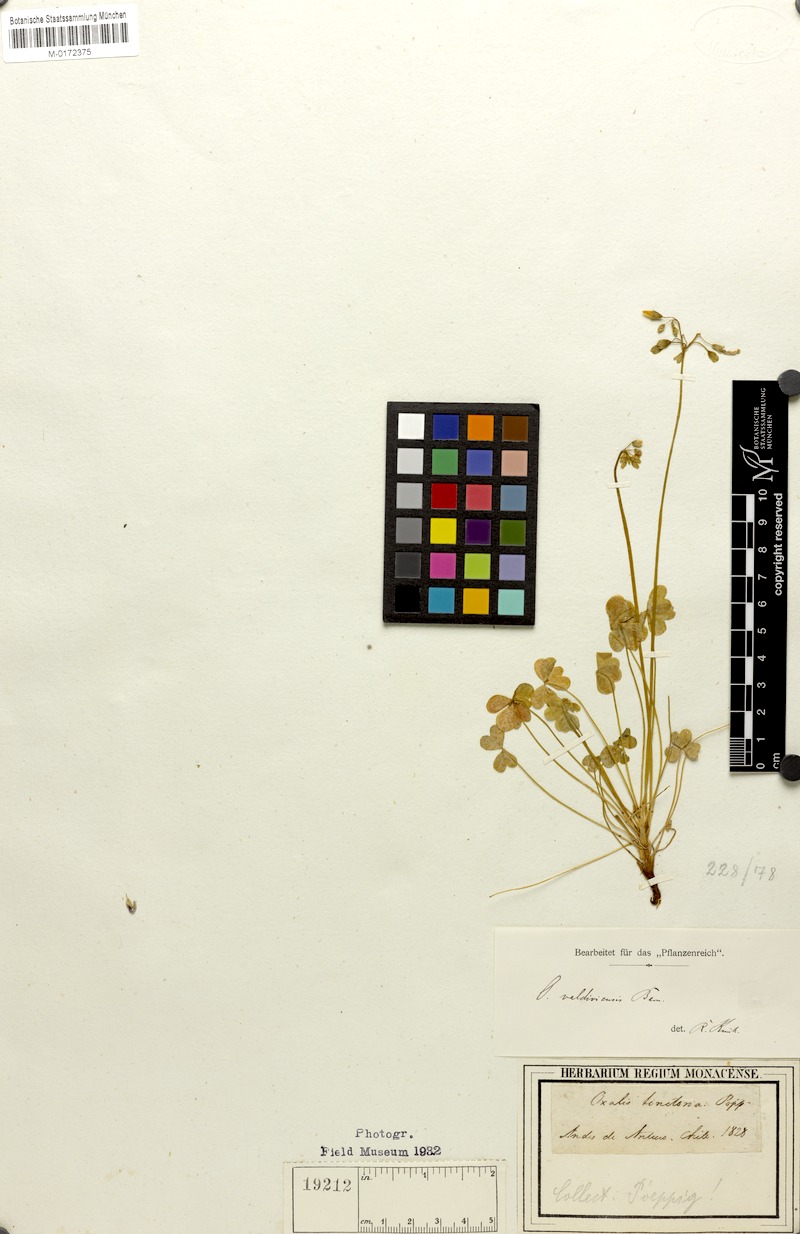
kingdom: Plantae
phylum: Tracheophyta
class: Magnoliopsida
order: Oxalidales
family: Oxalidaceae
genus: Oxalis
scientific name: Oxalis valdiviensis
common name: Chilean yellow-sorrel
